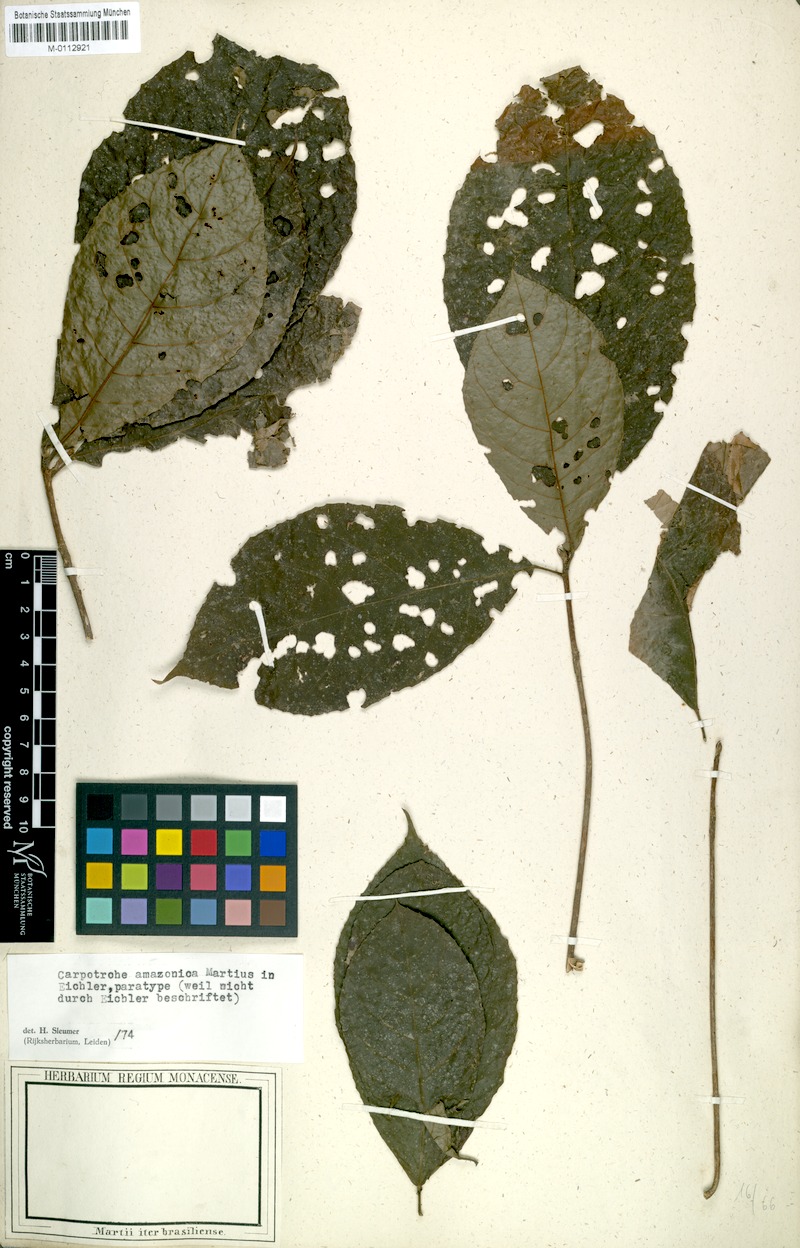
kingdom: Plantae
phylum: Tracheophyta
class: Magnoliopsida
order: Malpighiales
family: Achariaceae
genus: Carpotroche
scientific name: Carpotroche grandiflora
